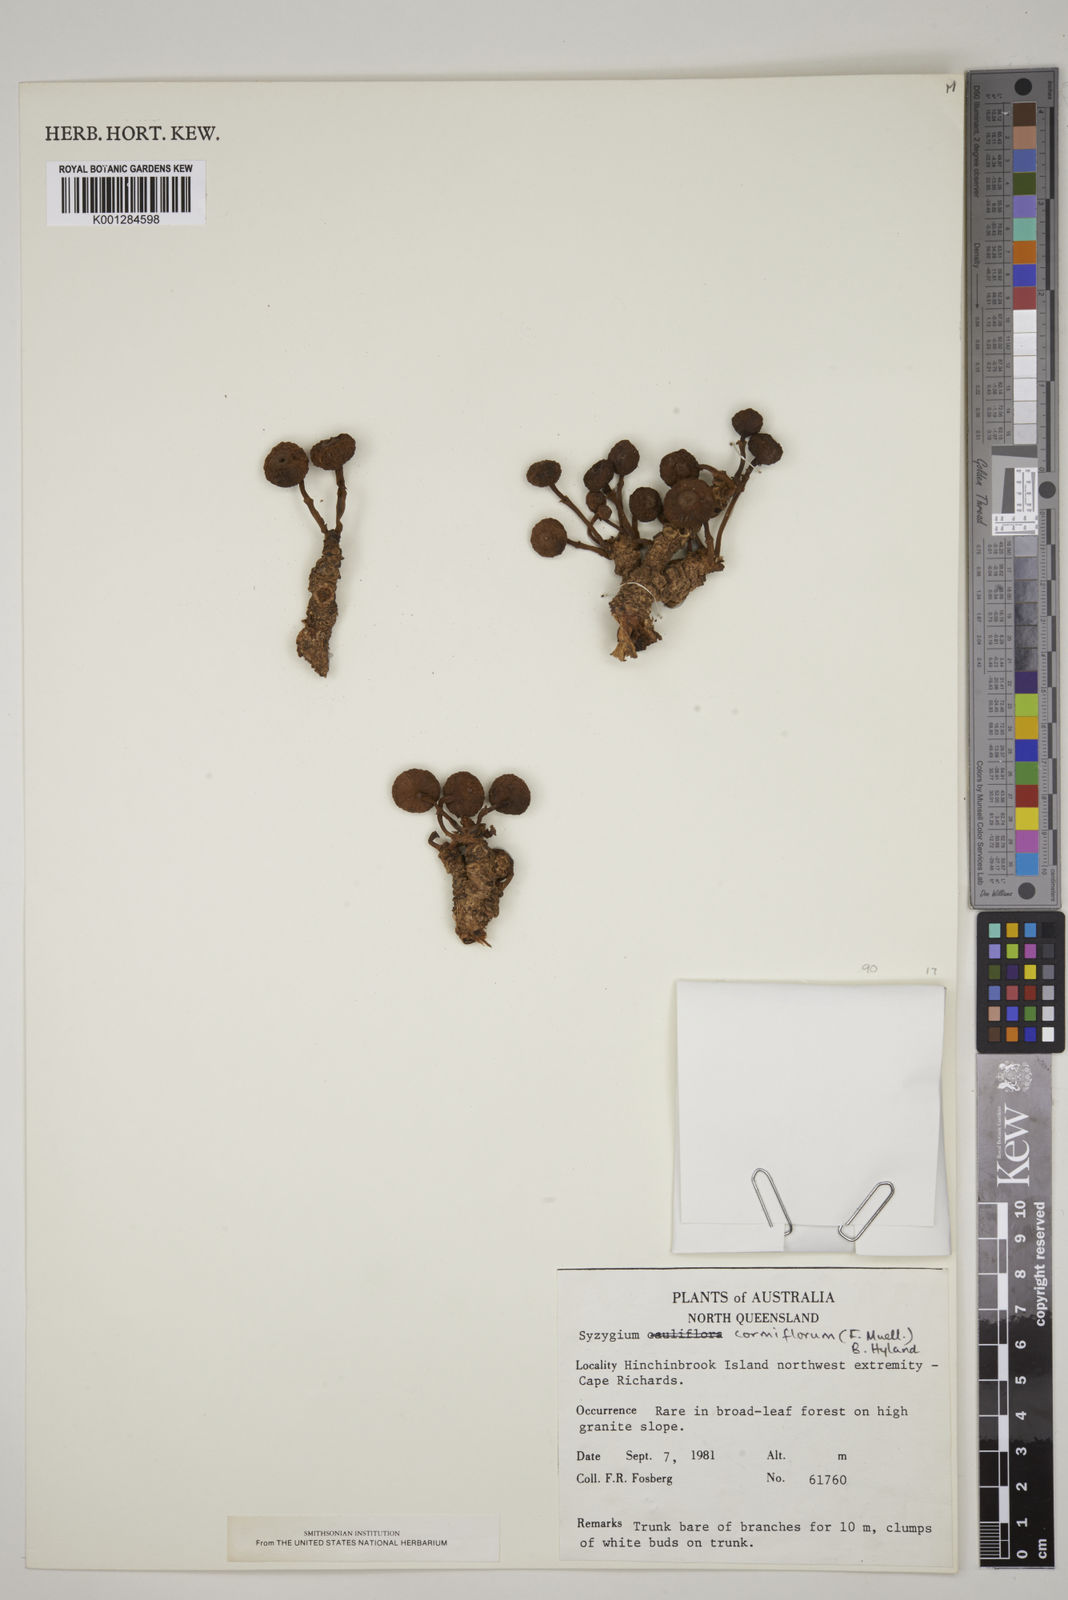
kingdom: Plantae
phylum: Tracheophyta
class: Magnoliopsida
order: Myrtales
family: Myrtaceae
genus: Syzygium
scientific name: Syzygium cormiflorum
